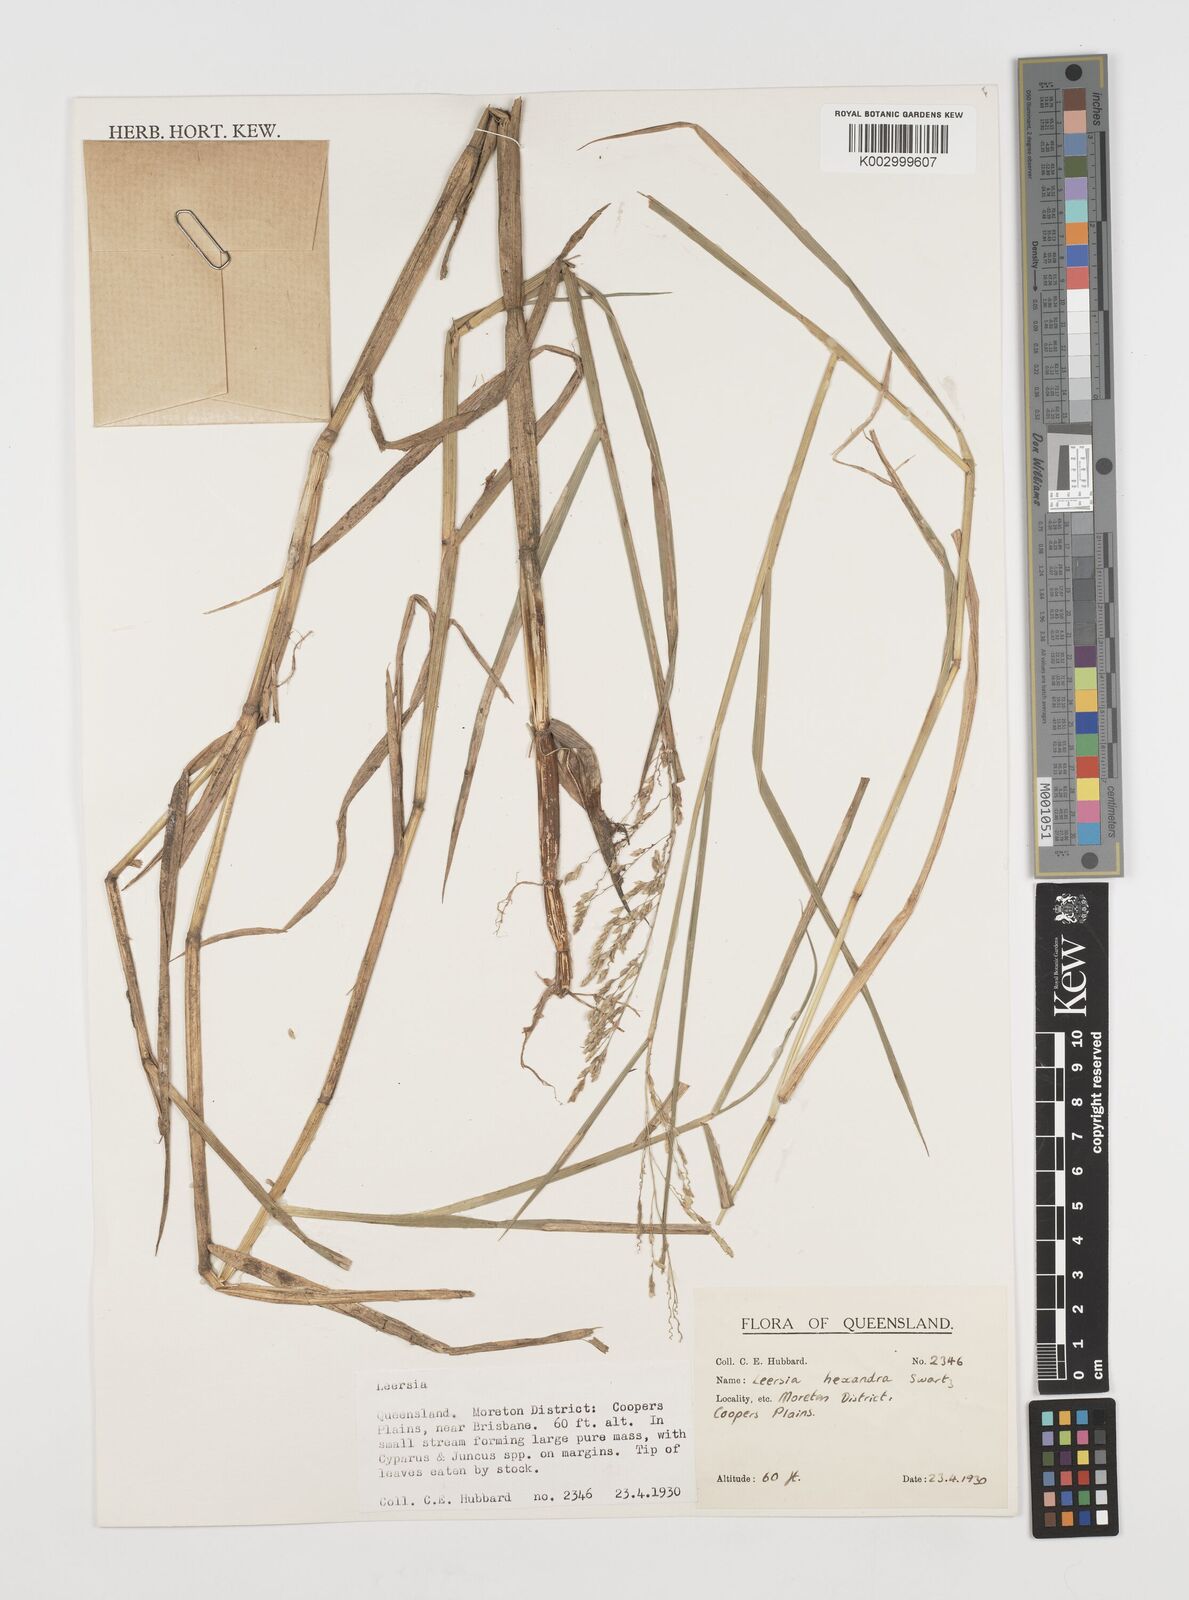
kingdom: Plantae
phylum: Tracheophyta
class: Liliopsida
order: Poales
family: Poaceae
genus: Leersia
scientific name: Leersia hexandra
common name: Southern cut grass
